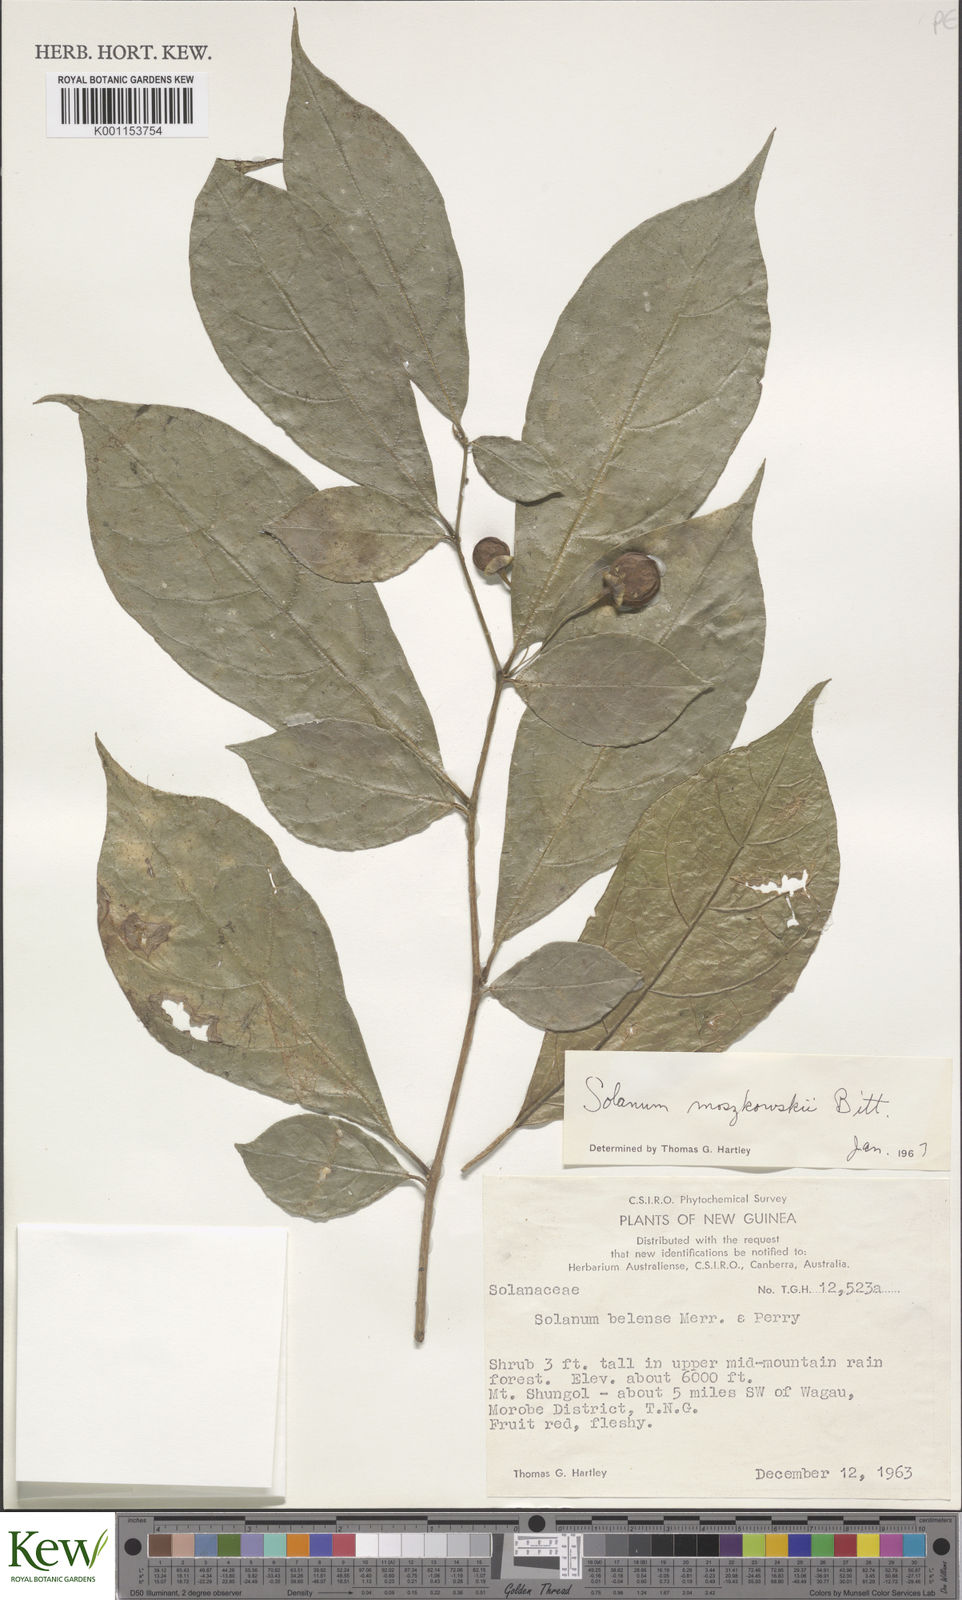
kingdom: Plantae
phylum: Tracheophyta
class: Magnoliopsida
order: Solanales
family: Solanaceae
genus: Lycianthes
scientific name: Lycianthes moszkowskii
